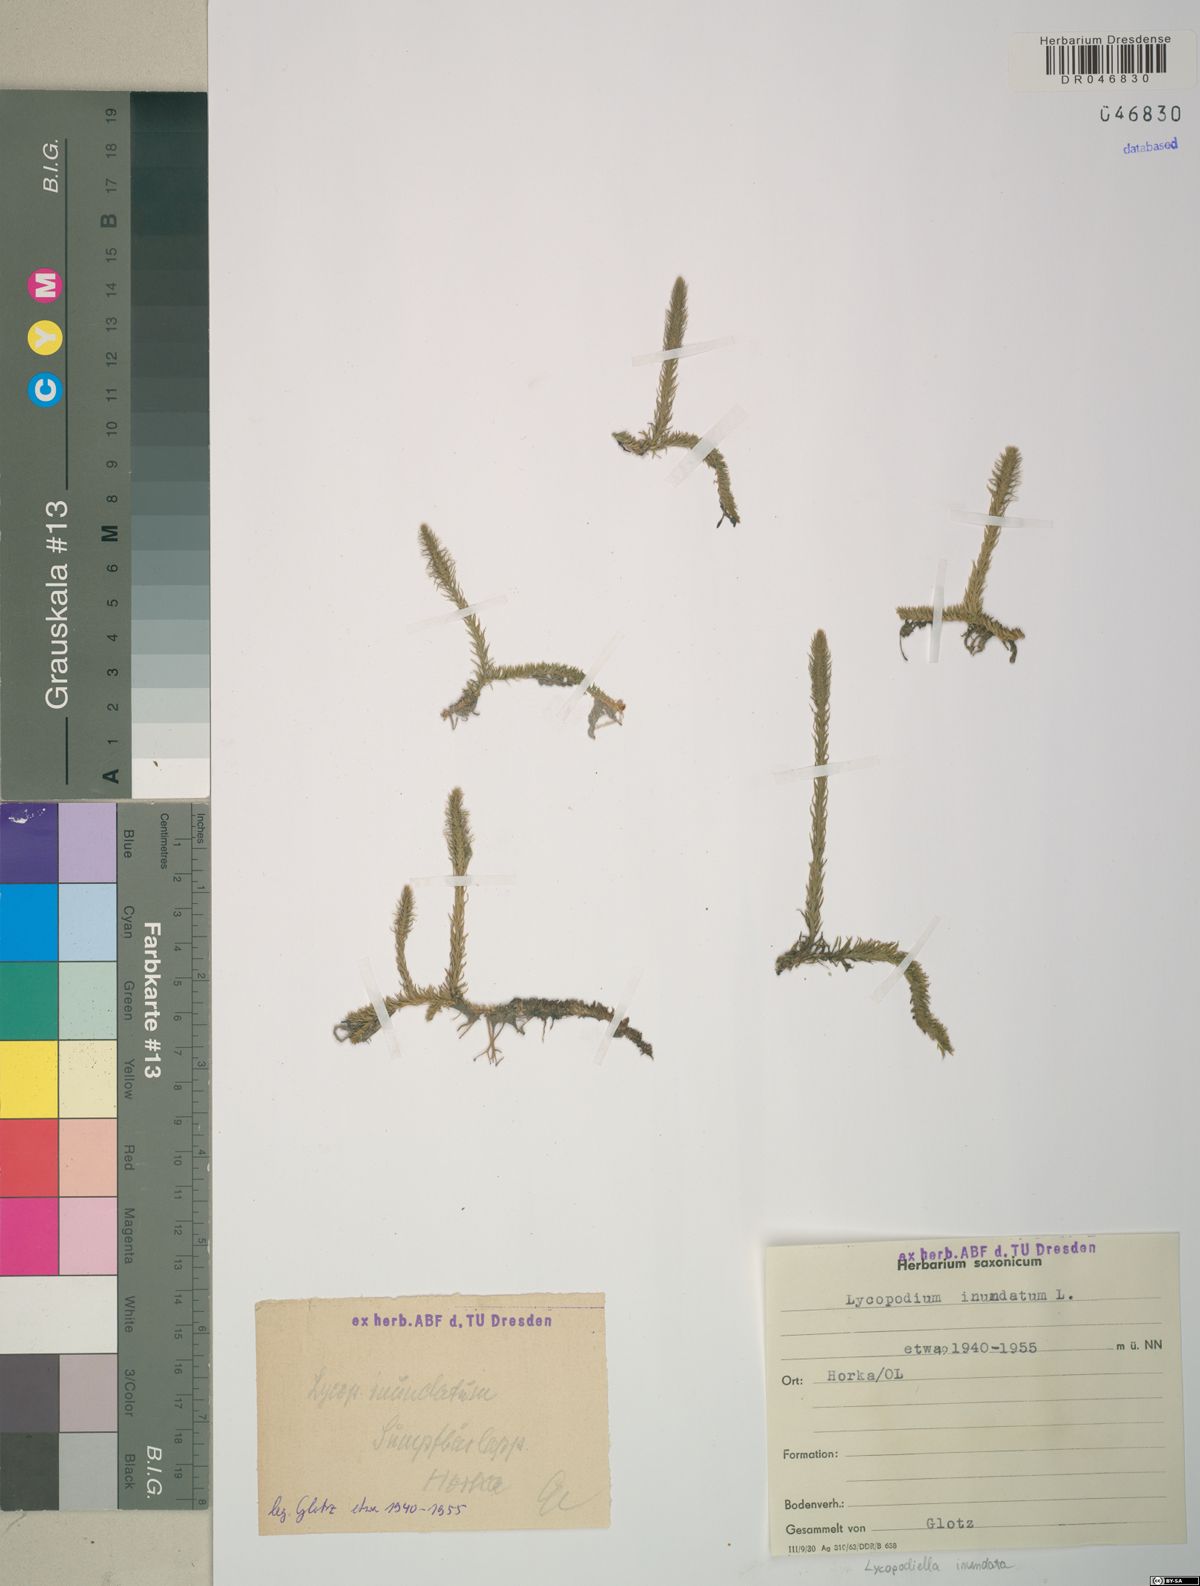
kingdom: Plantae
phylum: Tracheophyta
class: Lycopodiopsida
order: Lycopodiales
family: Lycopodiaceae
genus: Lycopodiella
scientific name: Lycopodiella inundata
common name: Marsh clubmoss
